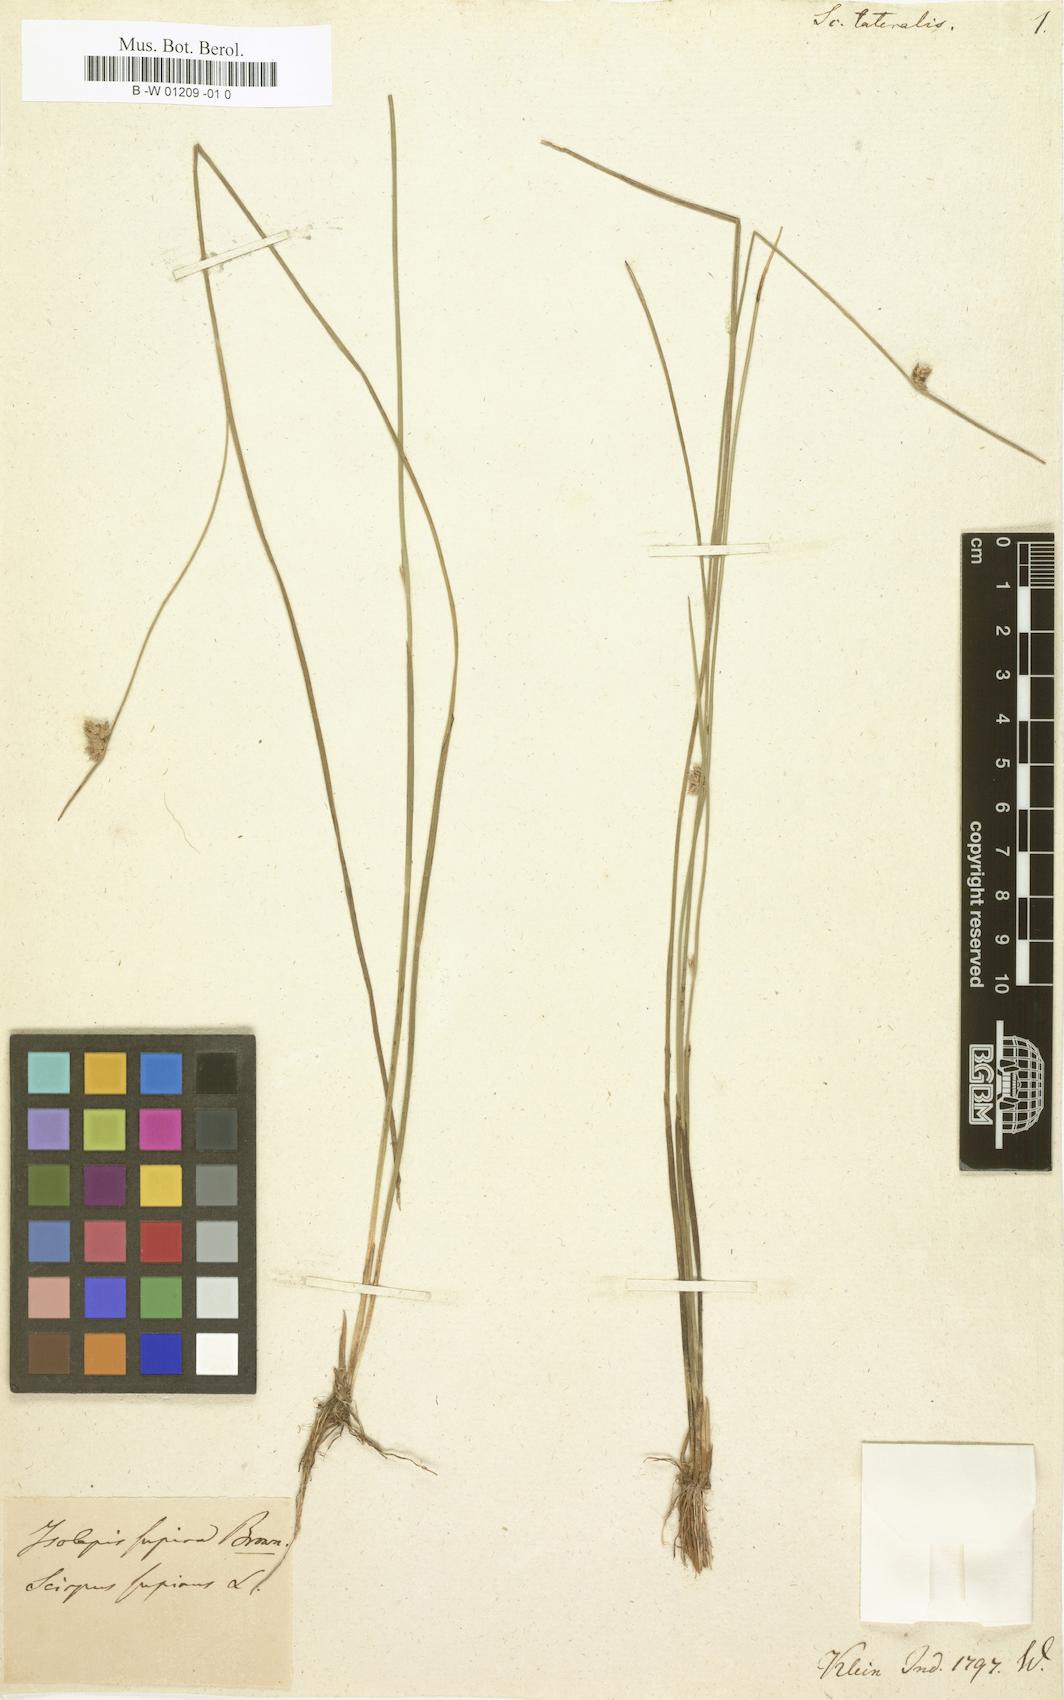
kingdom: Plantae
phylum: Tracheophyta
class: Liliopsida
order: Poales
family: Cyperaceae
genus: Schoenoplectiella
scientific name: Schoenoplectiella
